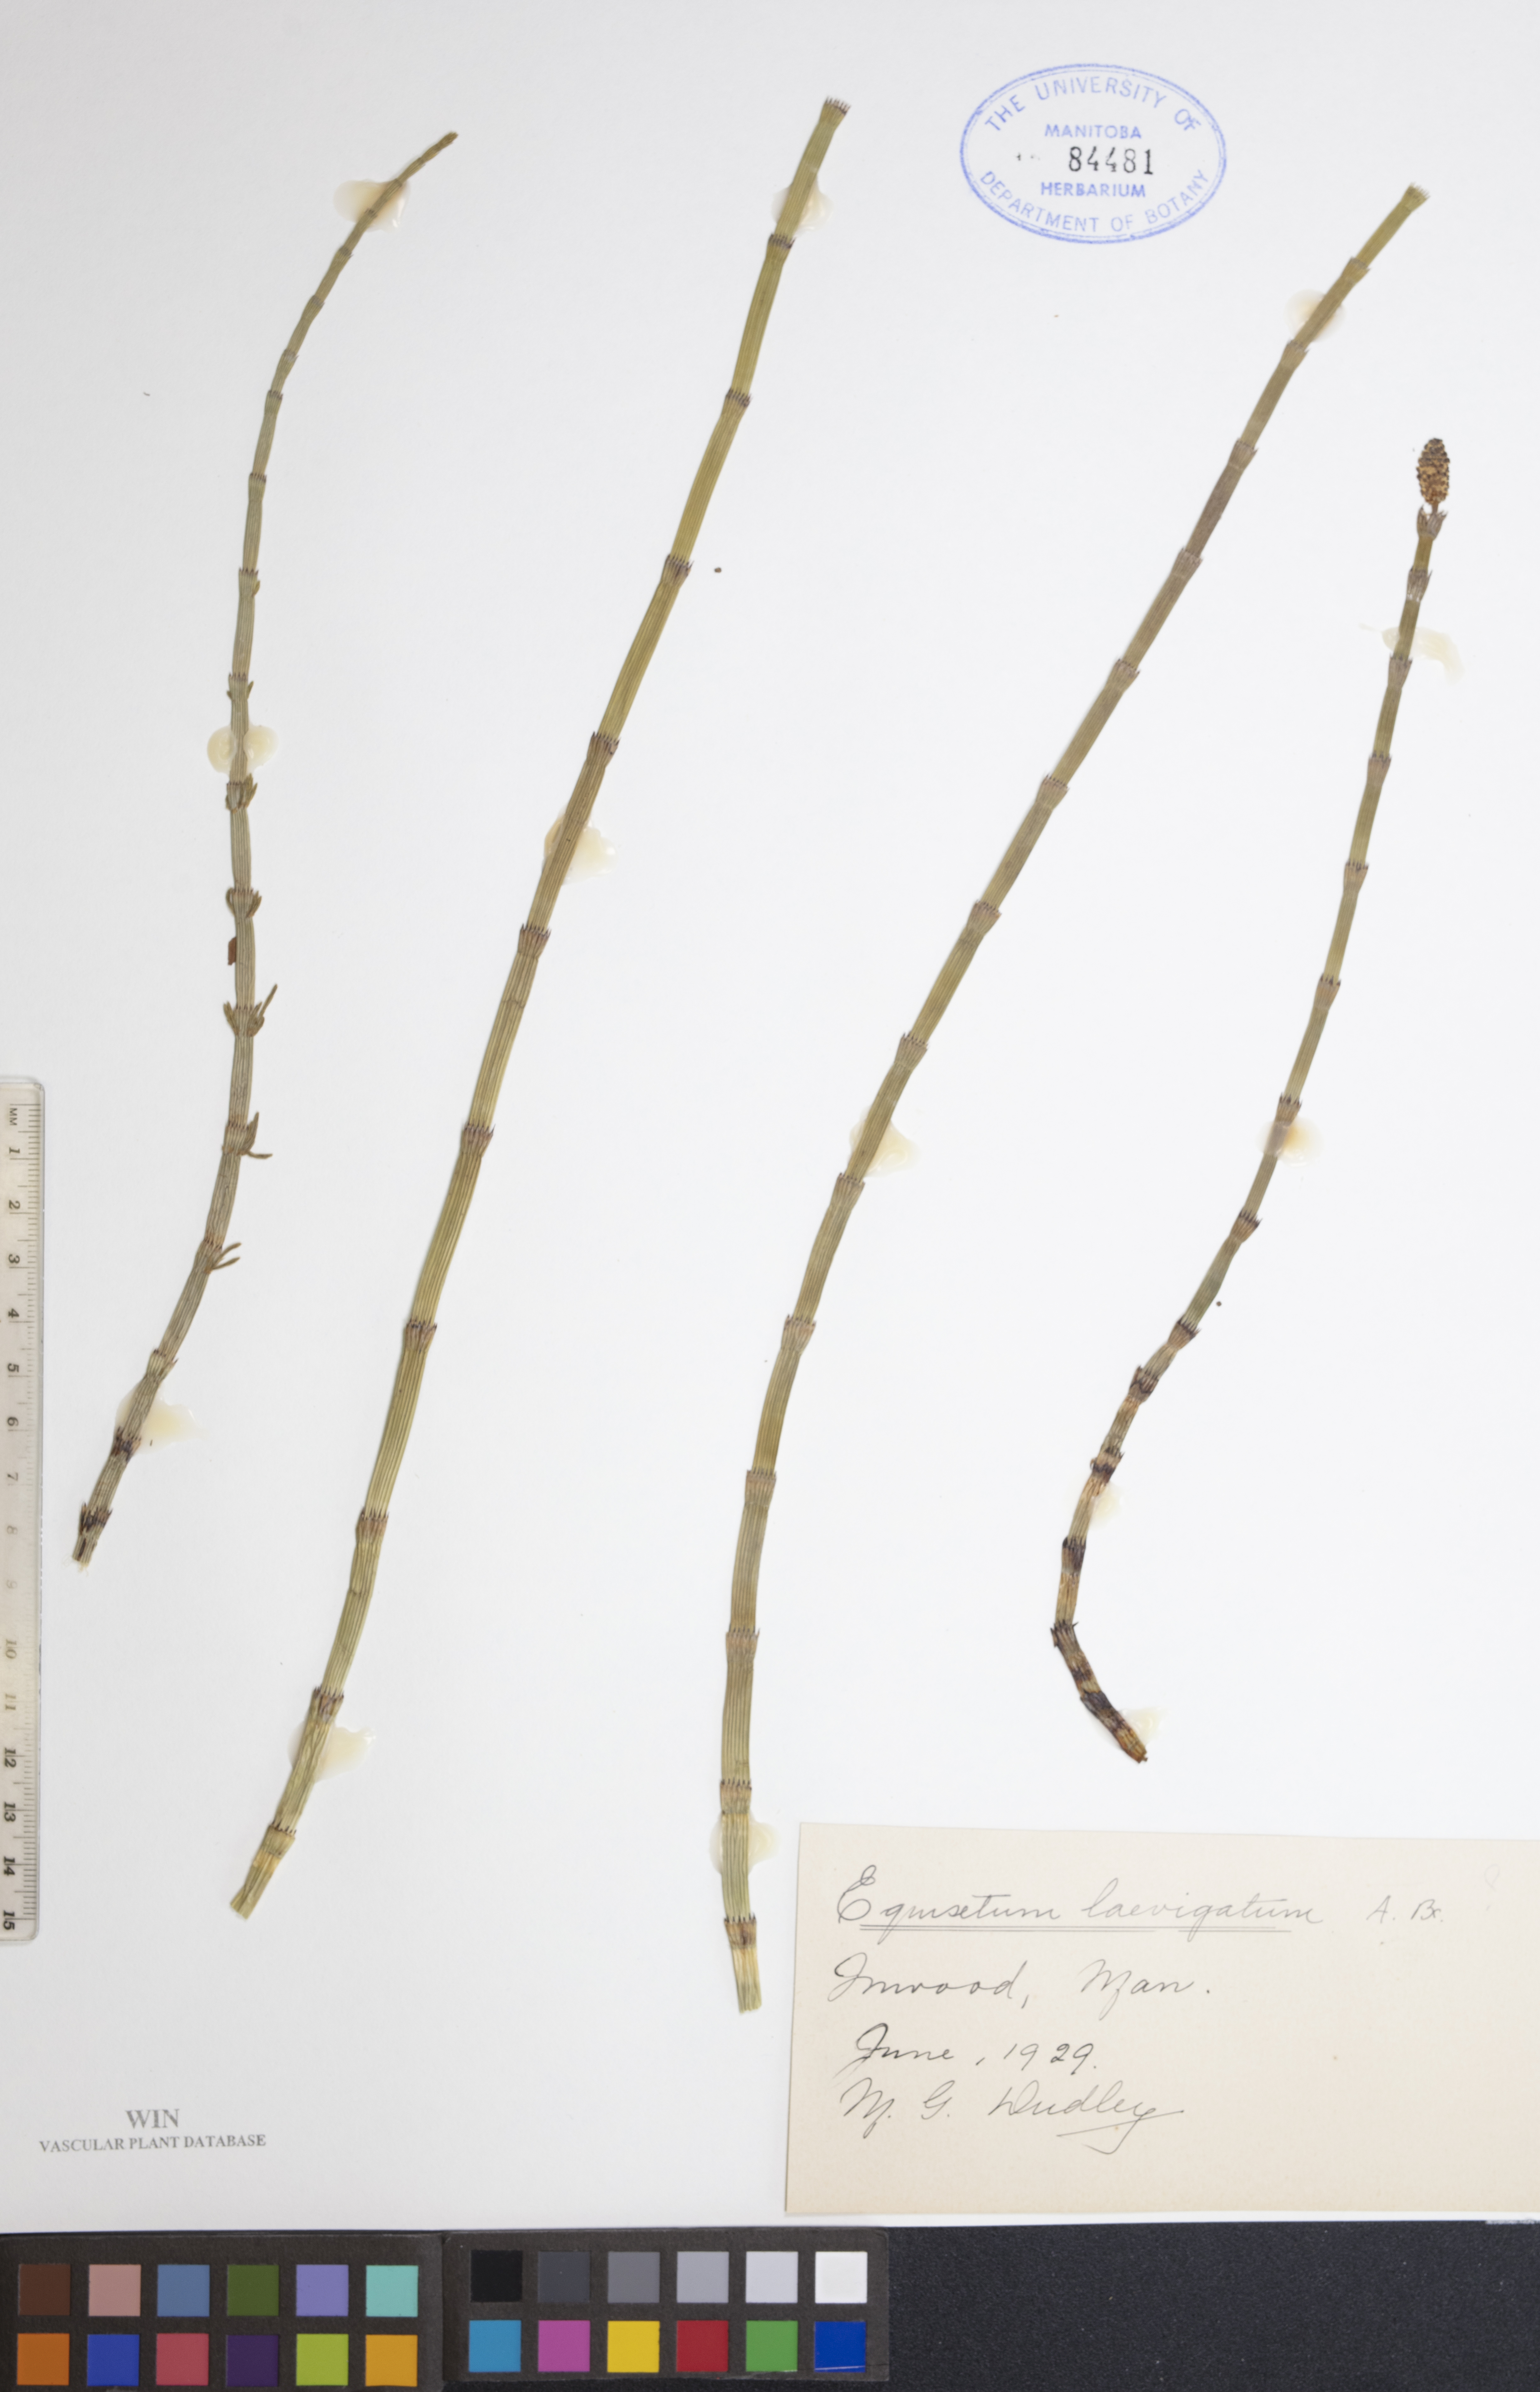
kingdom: Plantae
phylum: Tracheophyta
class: Polypodiopsida
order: Equisetales
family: Equisetaceae
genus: Equisetum
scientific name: Equisetum laevigatum
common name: Smooth scouring-rush
